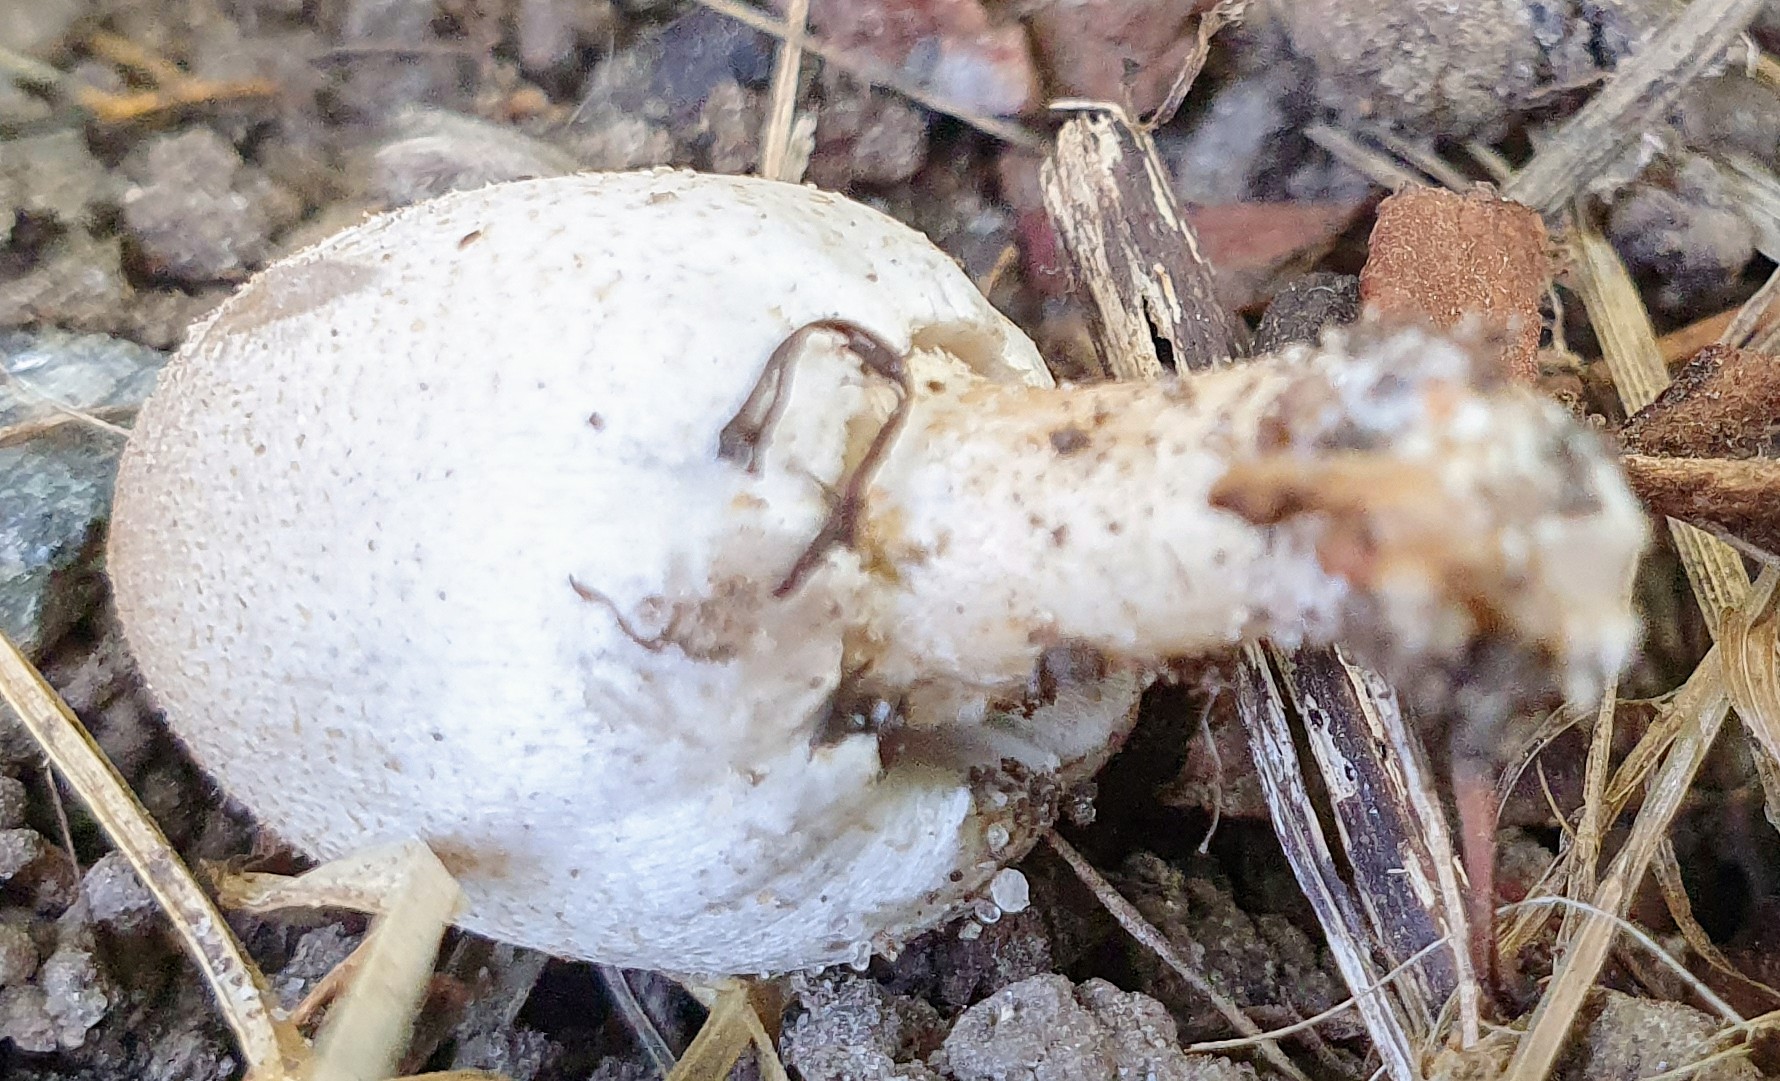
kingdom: Fungi
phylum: Basidiomycota
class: Agaricomycetes
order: Agaricales
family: Psathyrellaceae
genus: Coprinellus
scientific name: Coprinellus micaceus
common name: glimmer-blækhat
